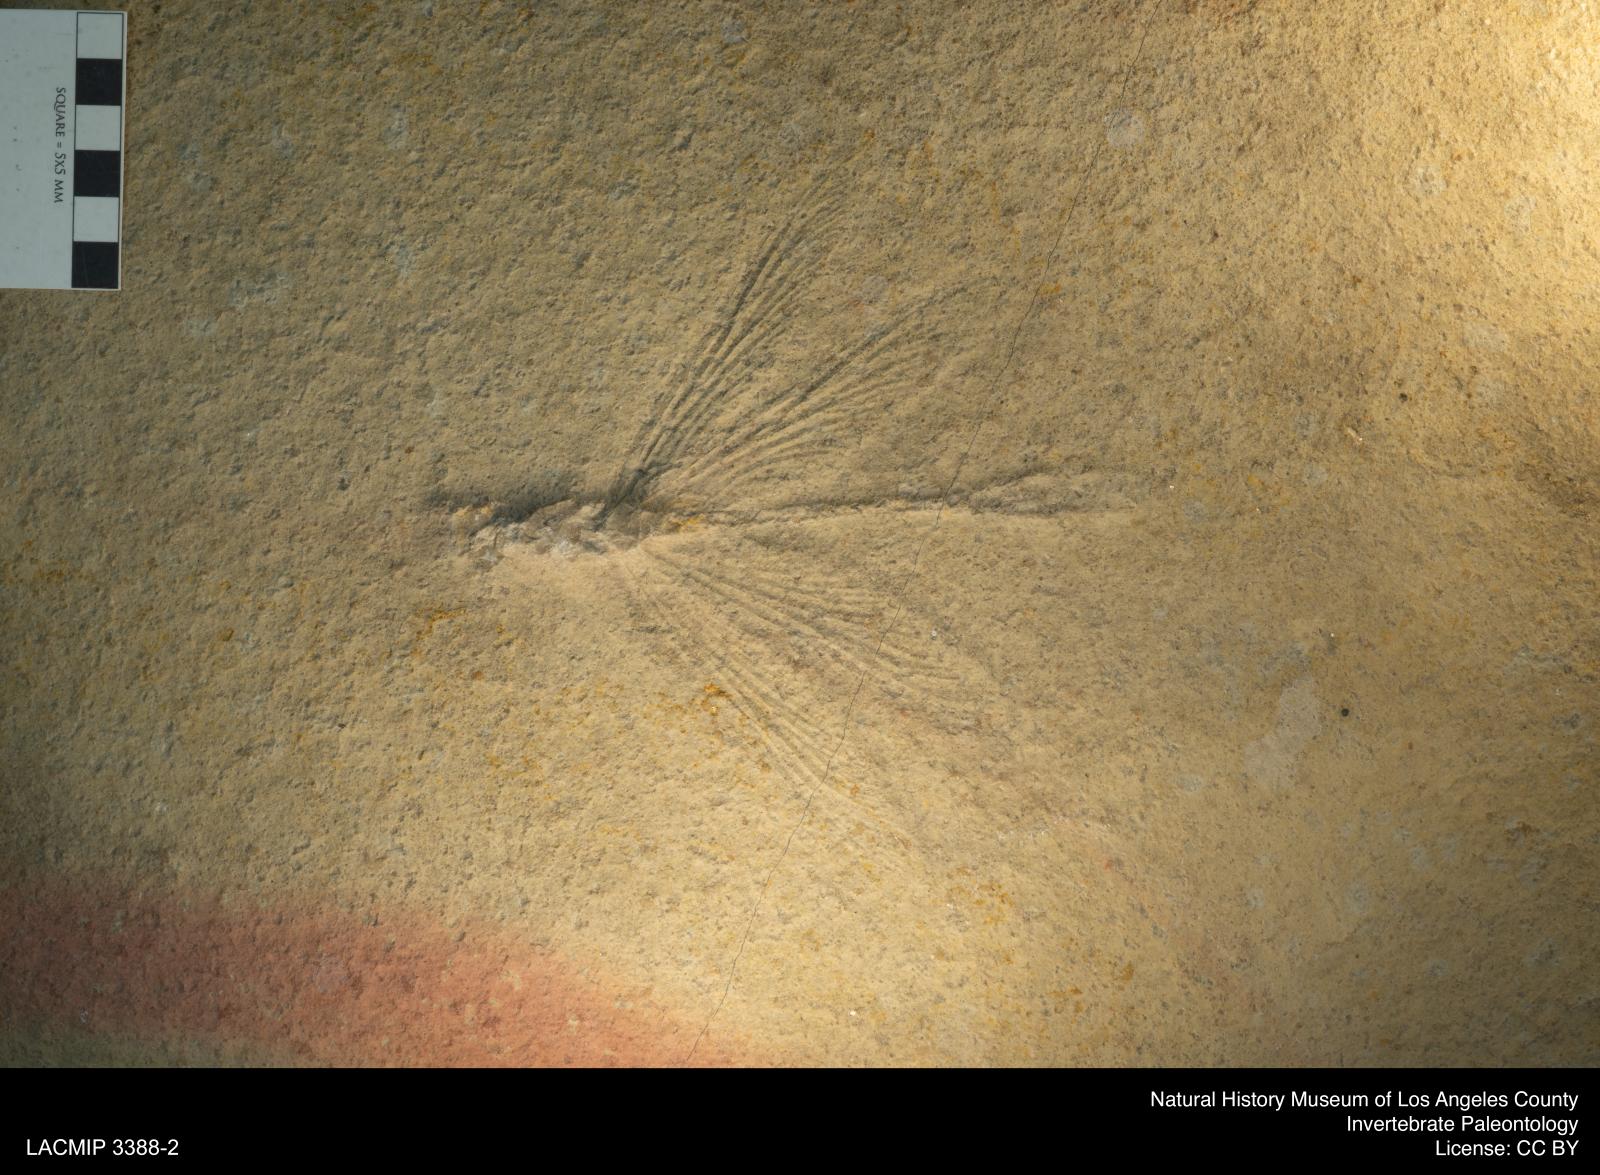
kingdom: Animalia
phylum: Arthropoda
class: Insecta
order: Odonata
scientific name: Odonata
